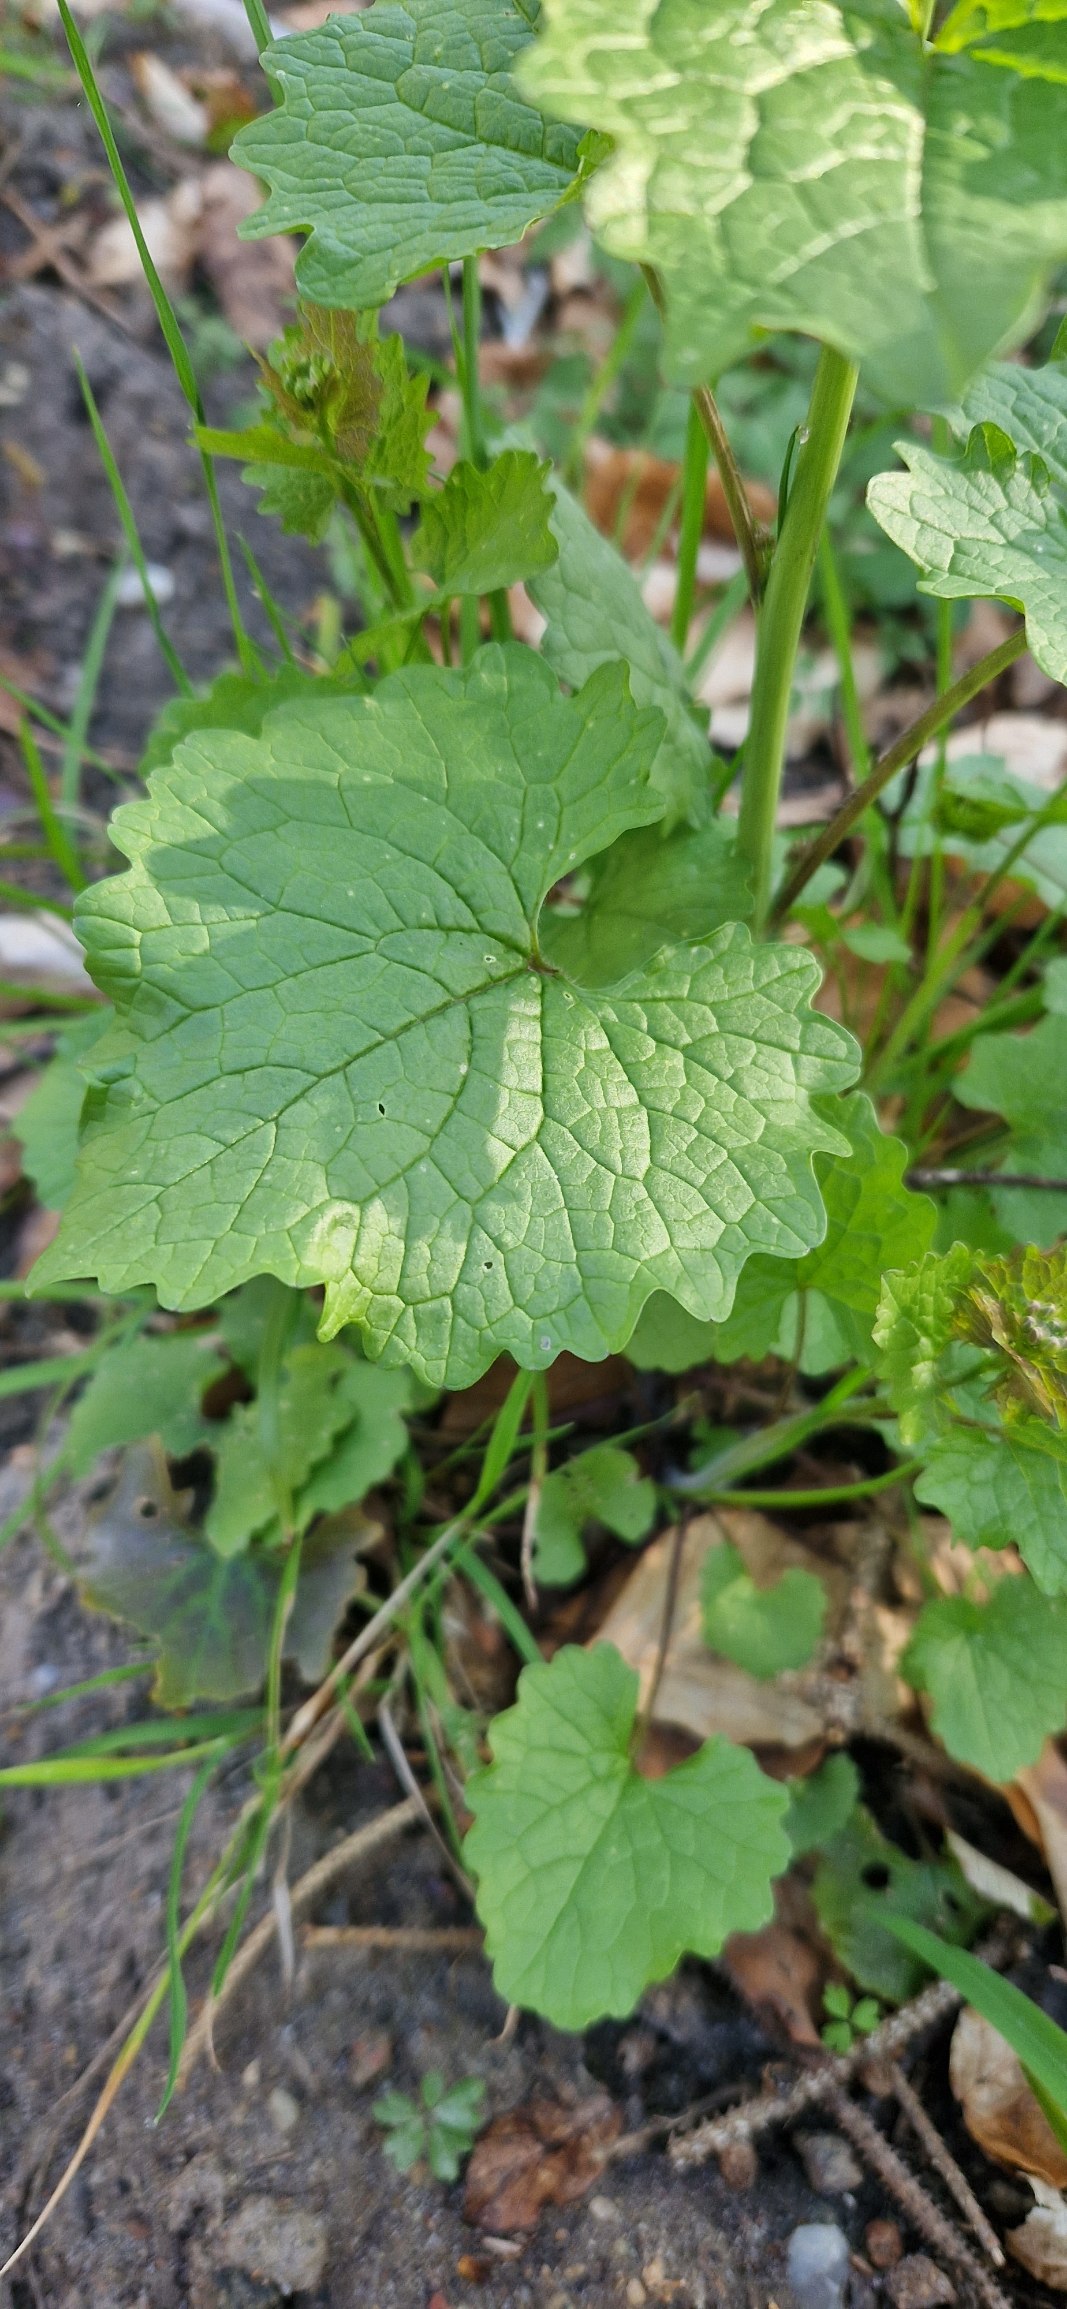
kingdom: Plantae
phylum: Tracheophyta
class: Magnoliopsida
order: Brassicales
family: Brassicaceae
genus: Alliaria
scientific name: Alliaria petiolata
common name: Løgkarse
